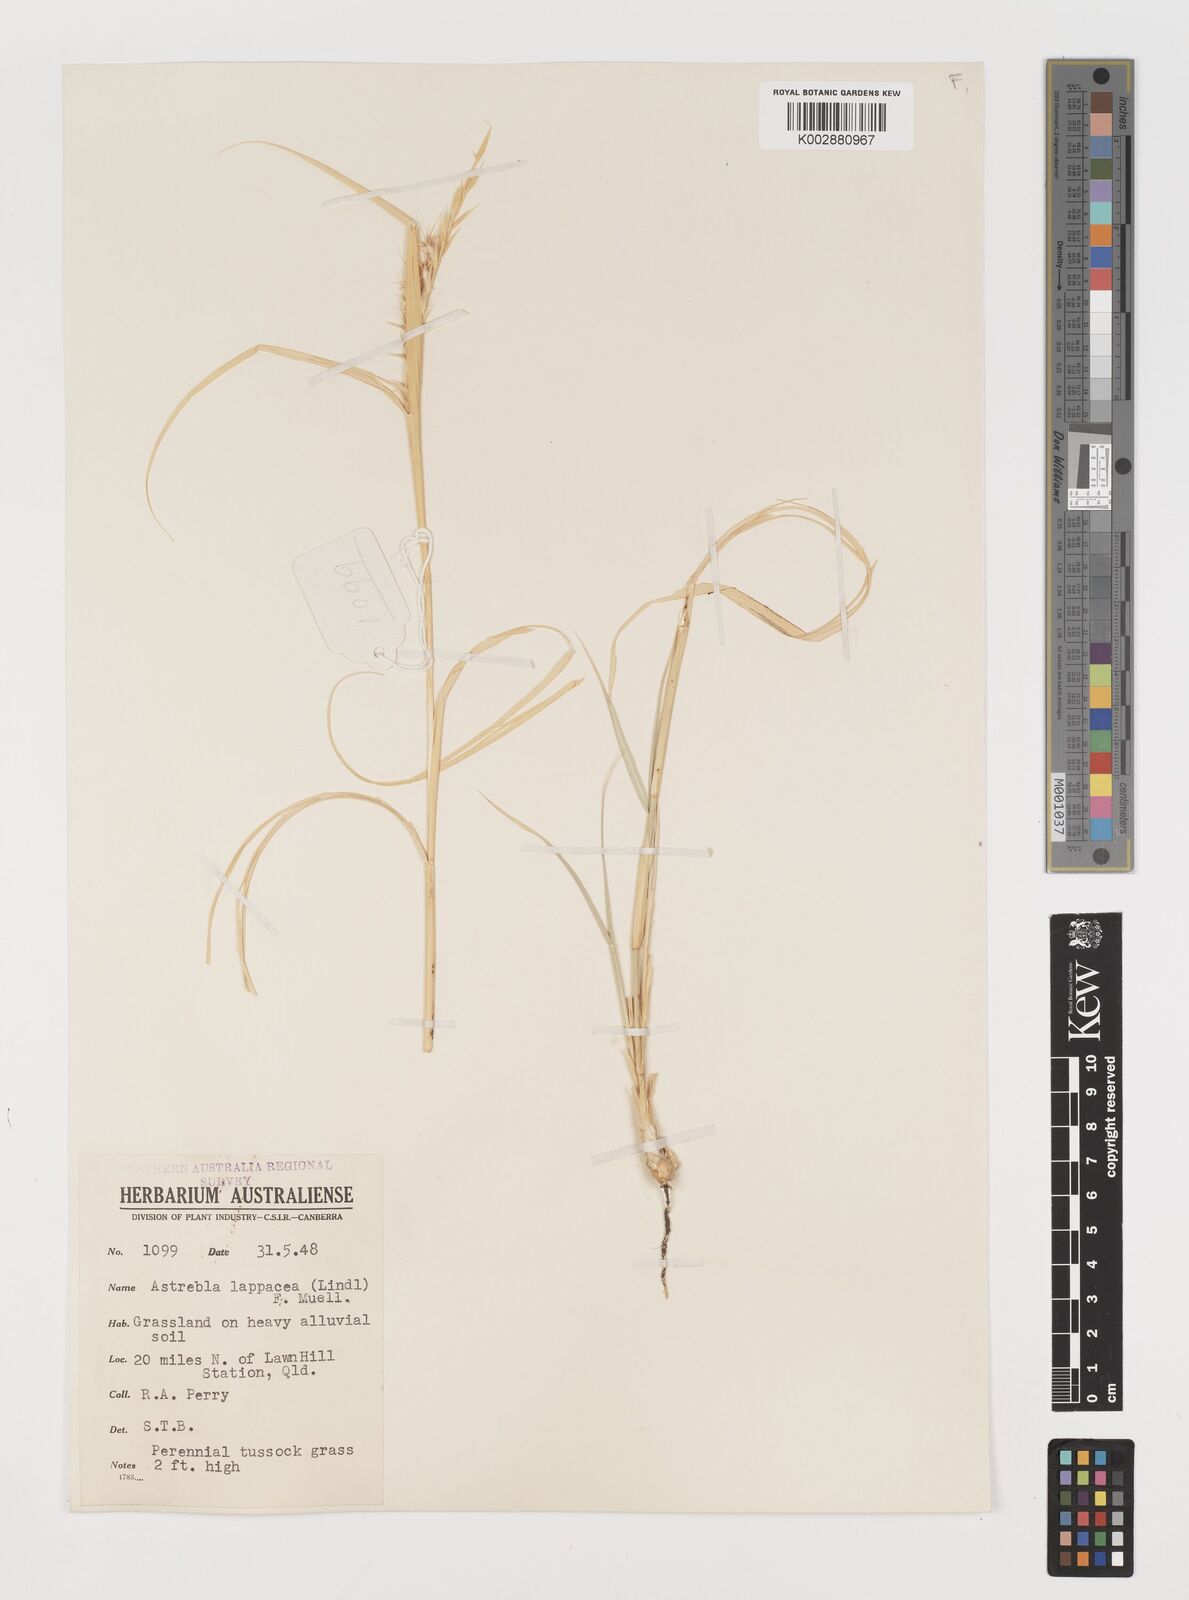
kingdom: Plantae
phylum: Tracheophyta
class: Liliopsida
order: Poales
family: Poaceae
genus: Astrebla
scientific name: Astrebla lappacea
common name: Curly mitchell grass
